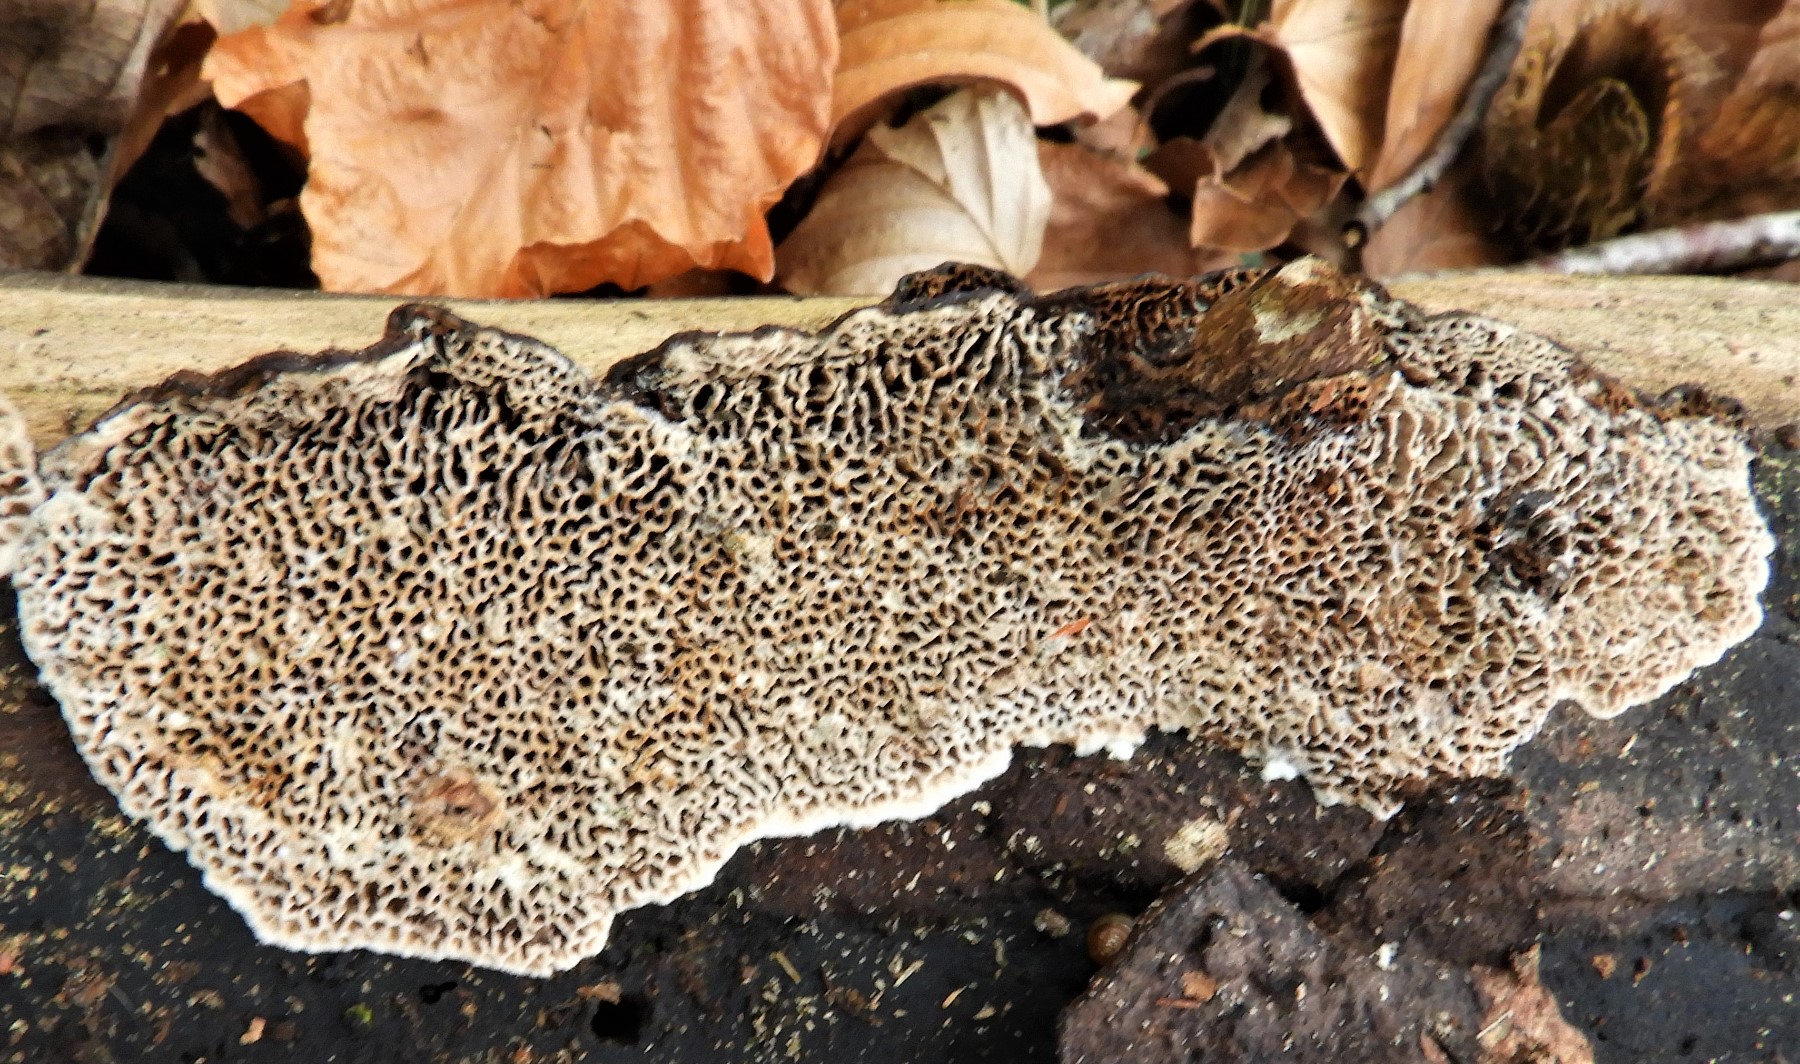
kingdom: Fungi
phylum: Basidiomycota
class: Agaricomycetes
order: Polyporales
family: Polyporaceae
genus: Podofomes
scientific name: Podofomes mollis
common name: blød begporesvamp
